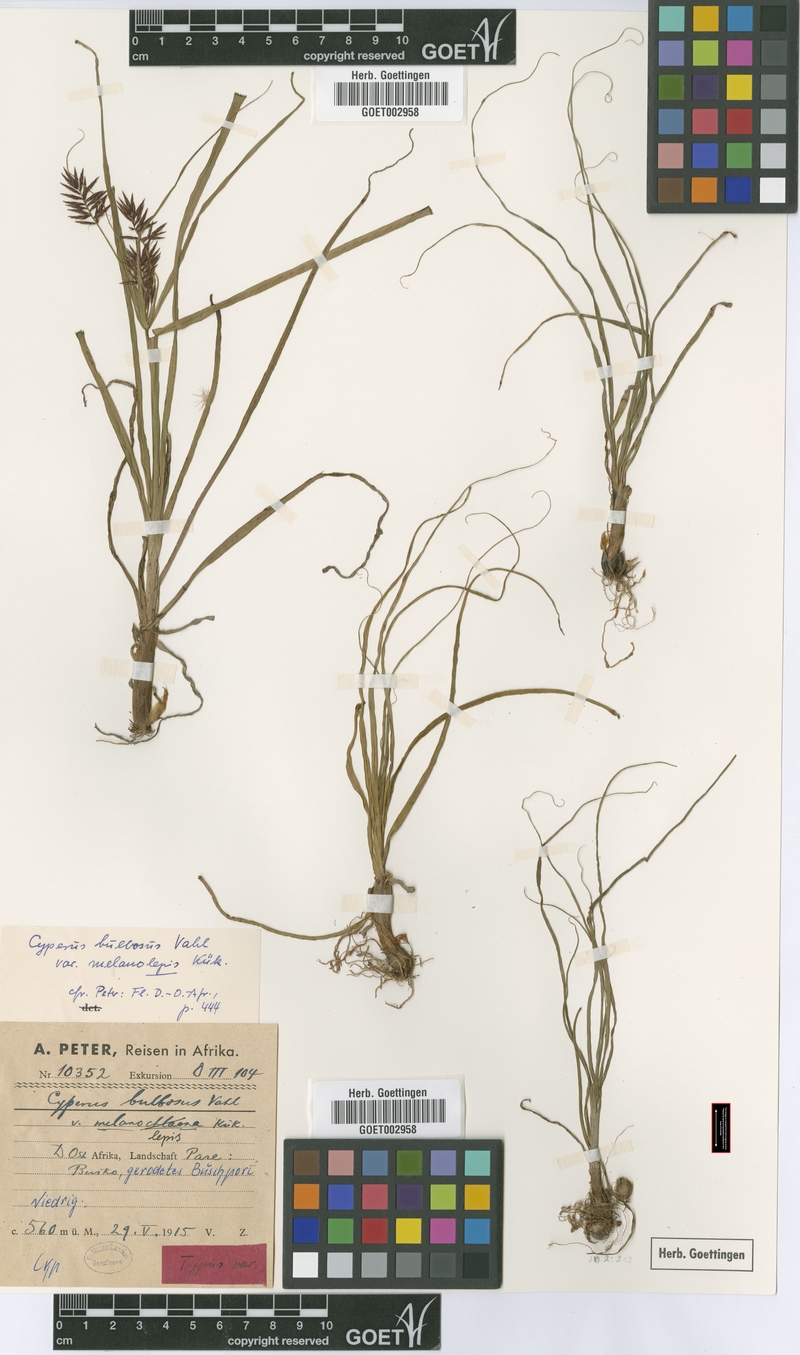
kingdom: Plantae
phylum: Tracheophyta
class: Liliopsida
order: Poales
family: Cyperaceae
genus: Cyperus
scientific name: Cyperus bulbosus
